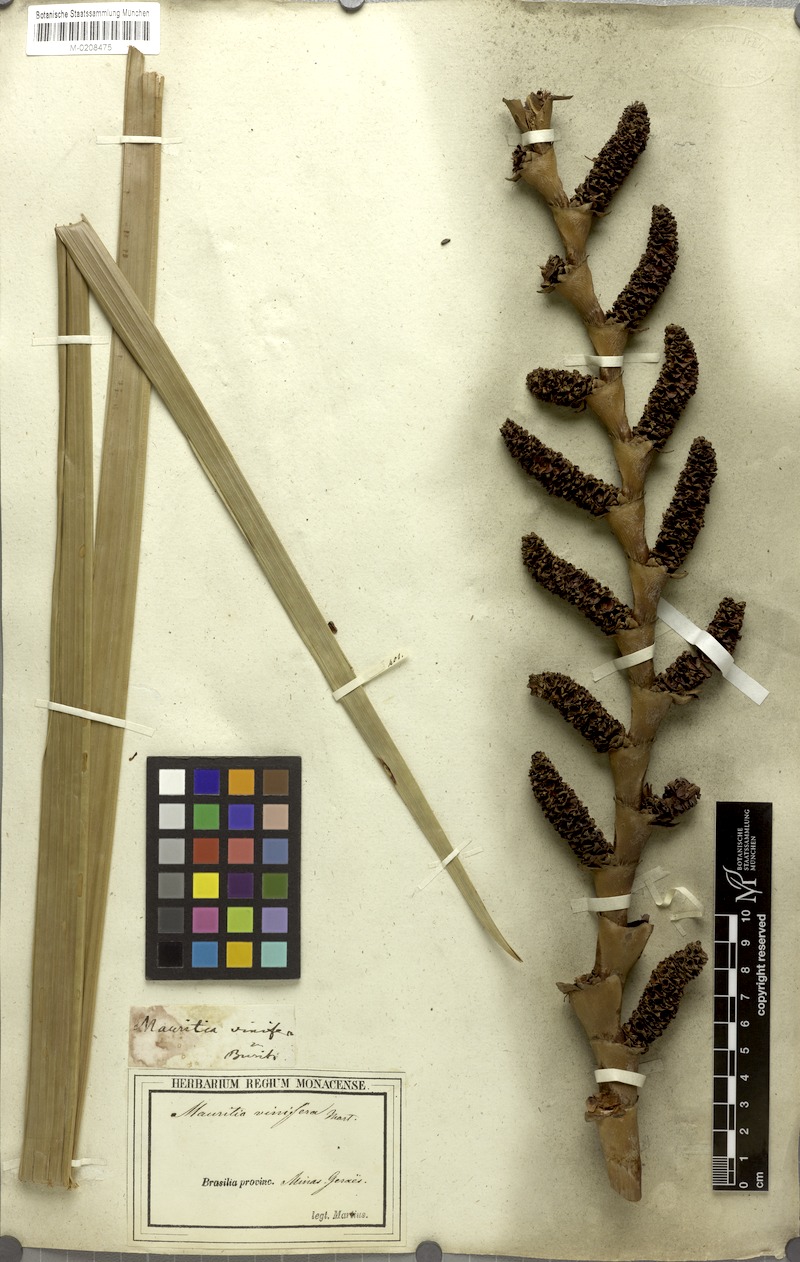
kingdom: Plantae
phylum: Tracheophyta
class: Liliopsida
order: Arecales
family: Arecaceae
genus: Mauritia
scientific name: Mauritia flexuosa
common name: Tree-of-life
